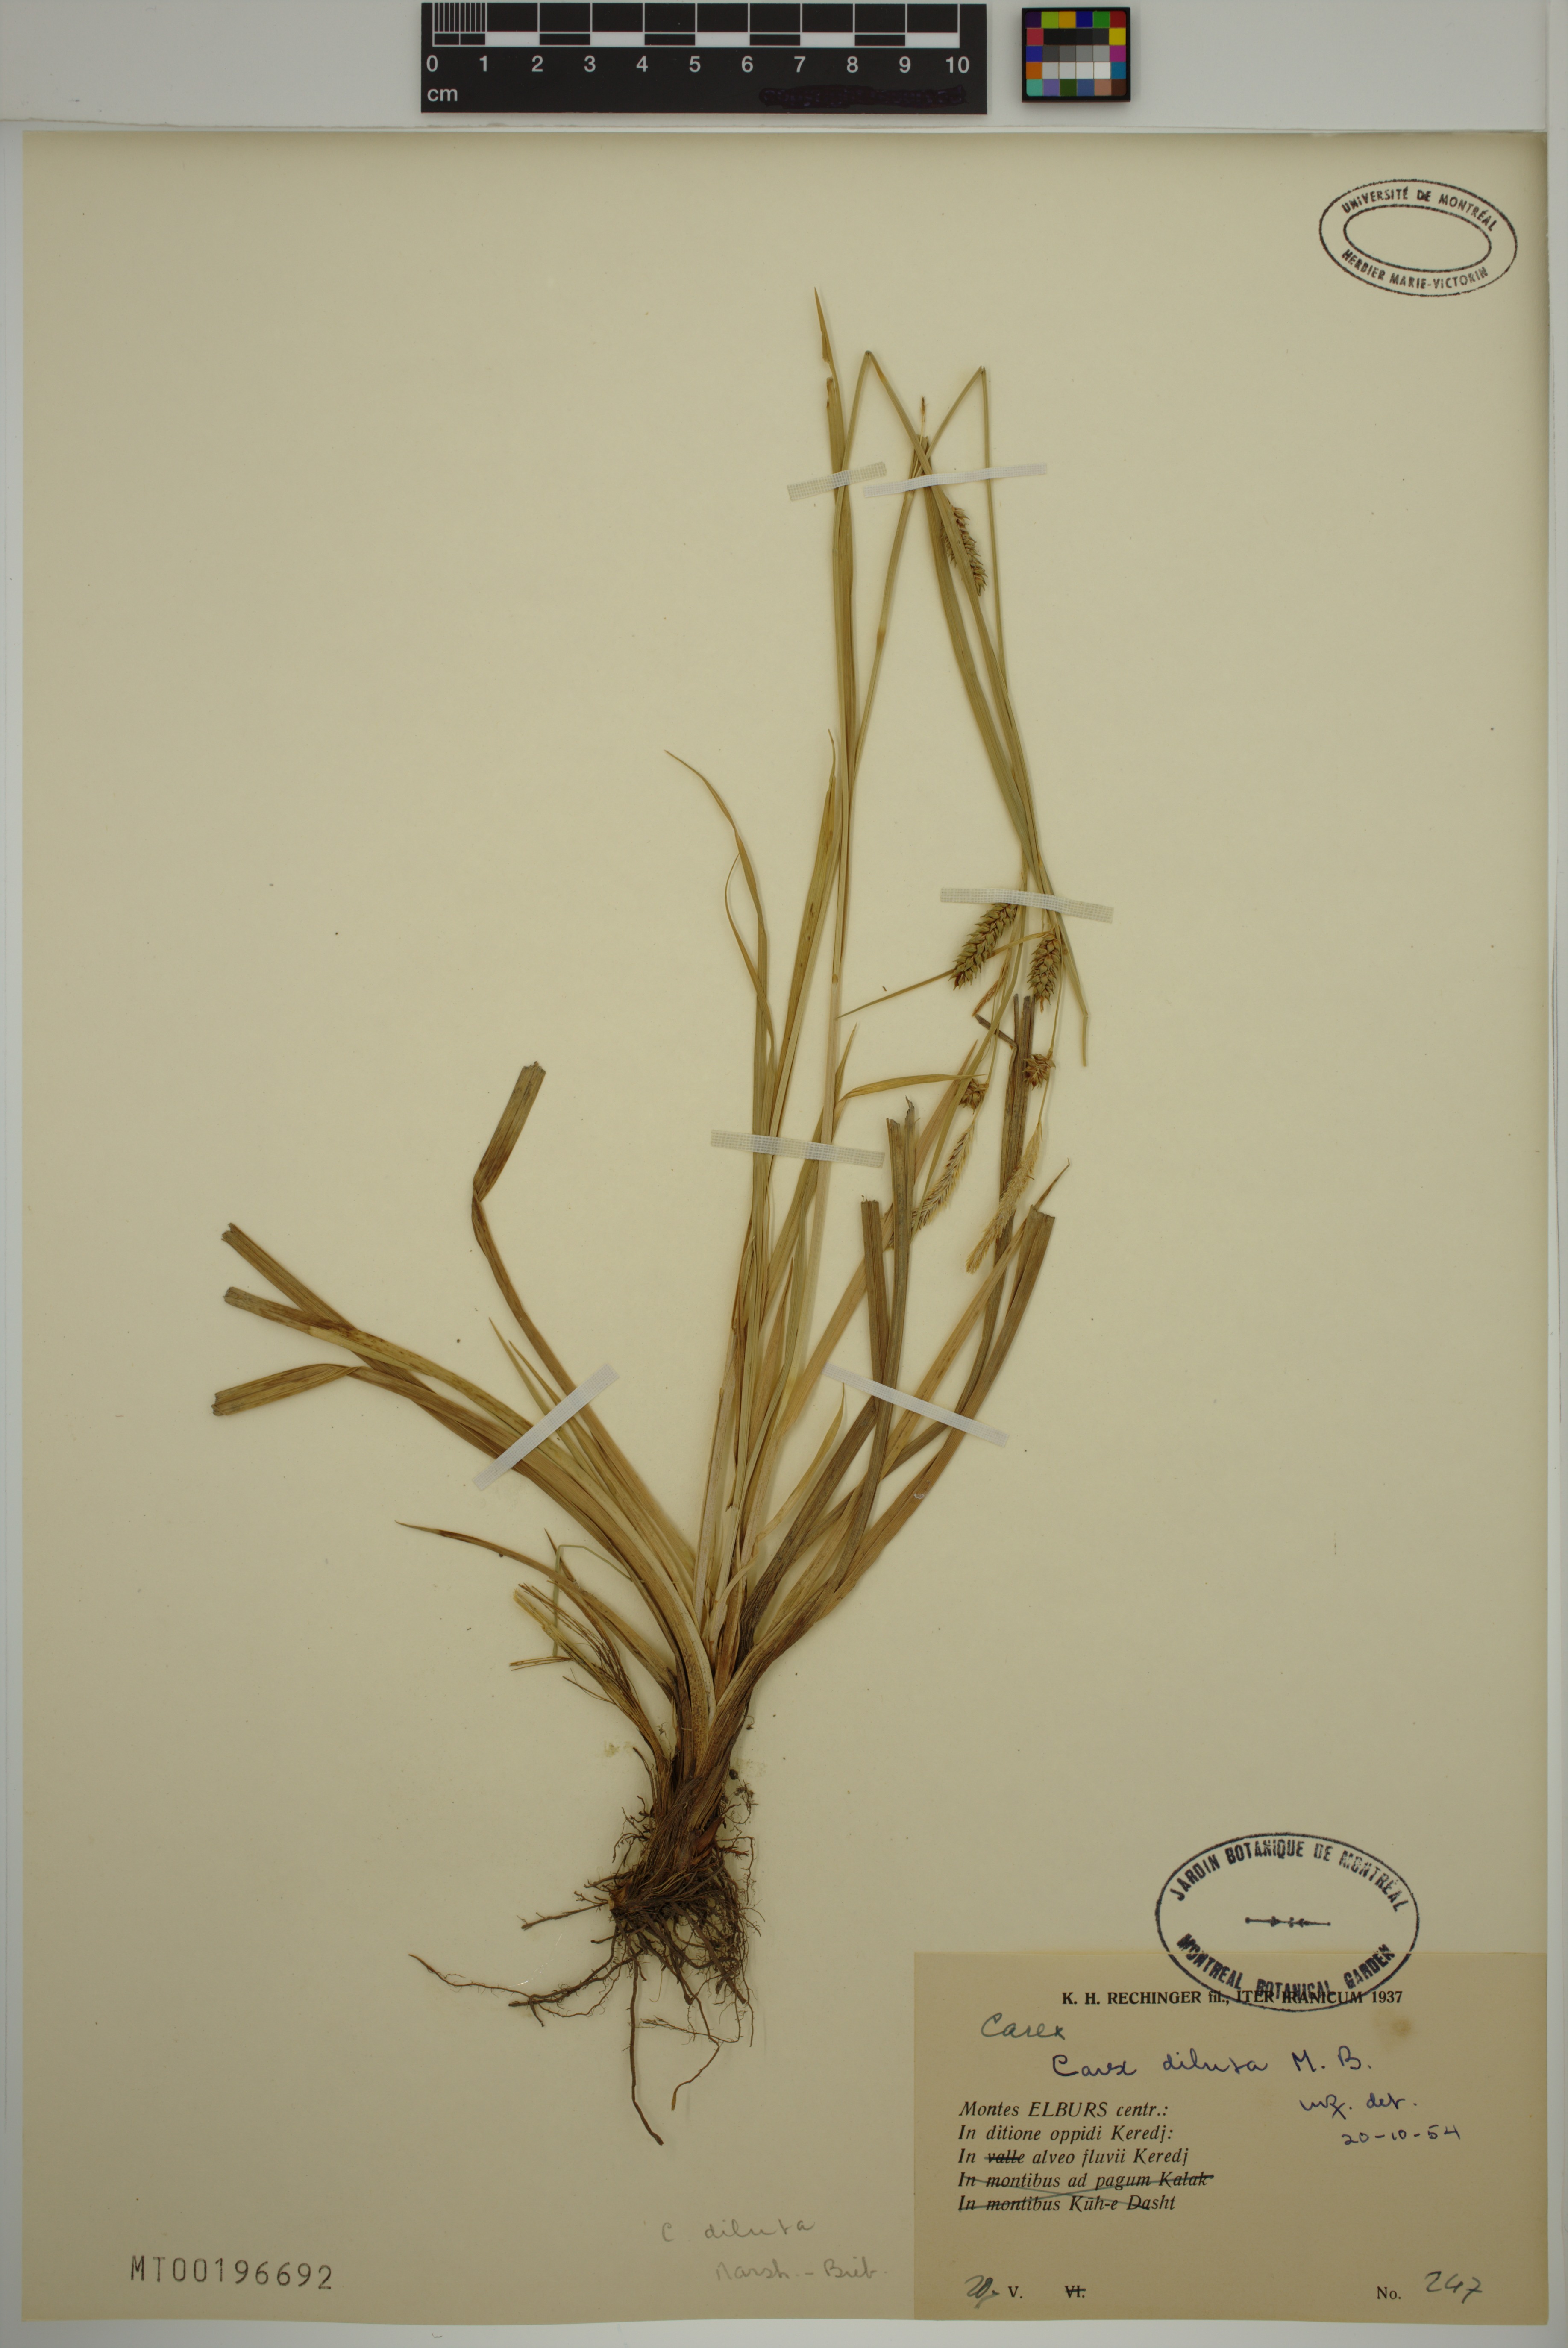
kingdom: Plantae
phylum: Tracheophyta
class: Liliopsida
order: Poales
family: Cyperaceae
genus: Carex
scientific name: Carex diluta
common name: Sedge
